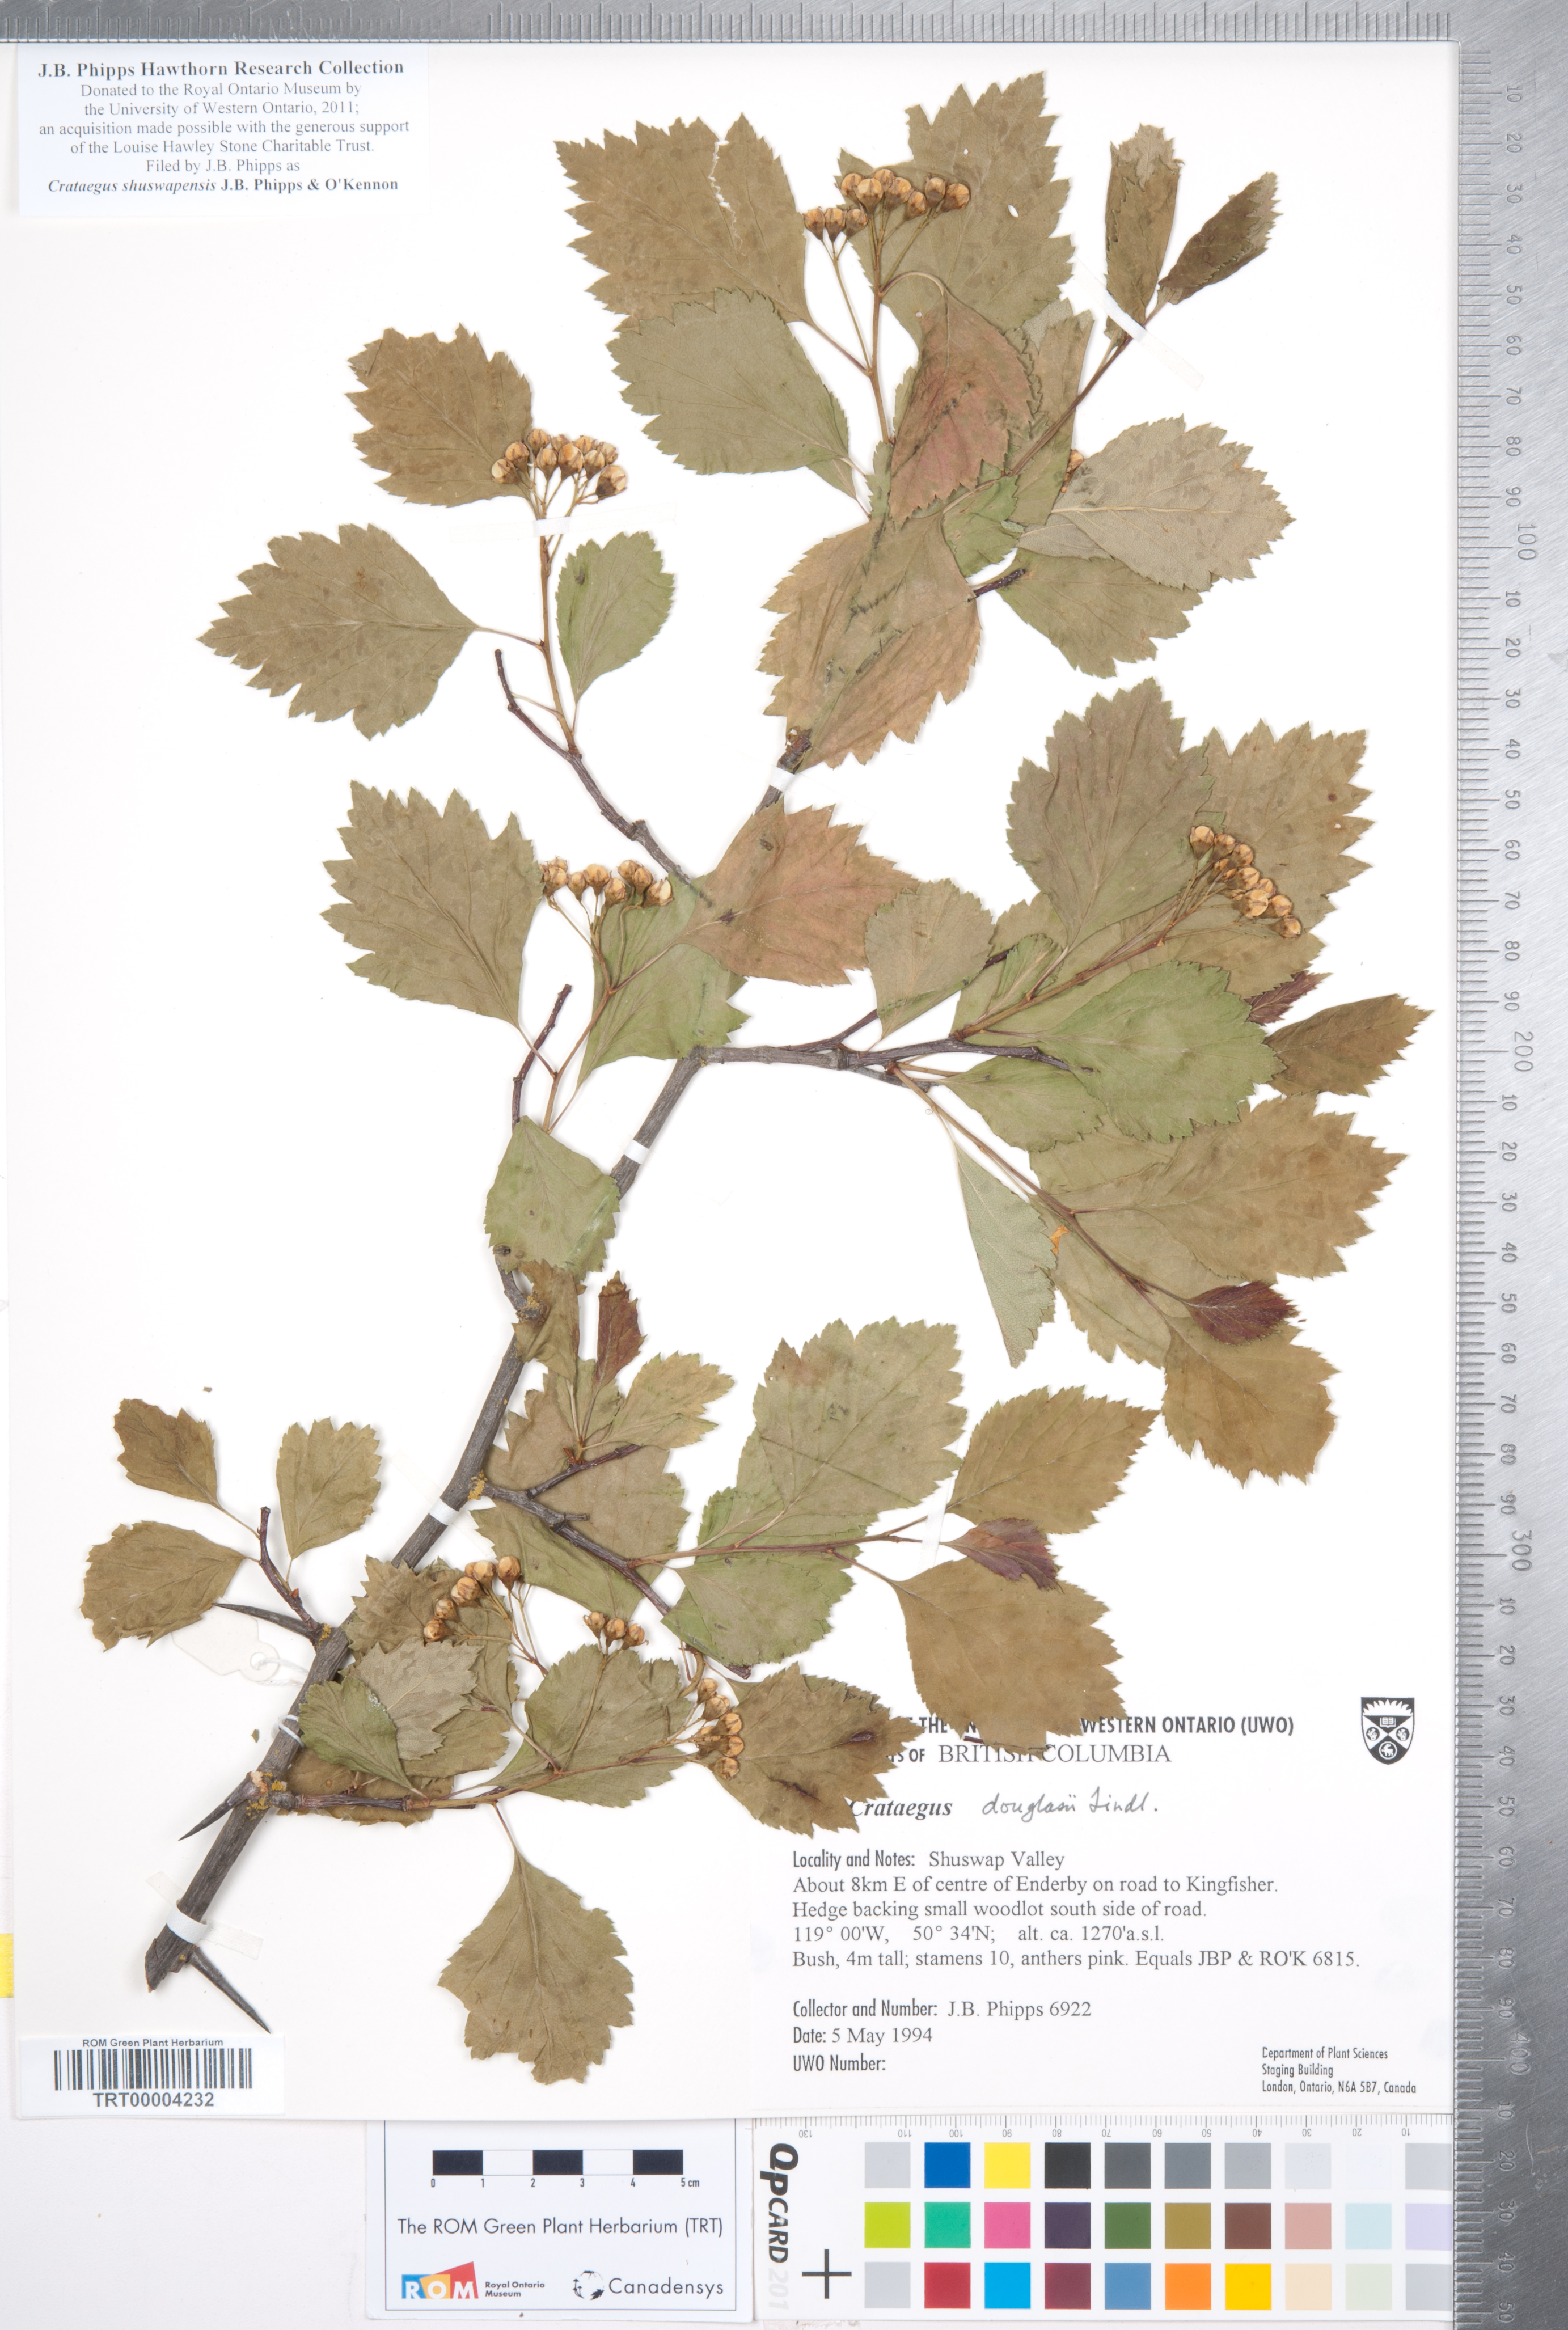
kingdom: Plantae
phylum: Tracheophyta
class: Magnoliopsida
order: Rosales
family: Rosaceae
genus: Crataegus
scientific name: Crataegus shuswapensis
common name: Shuswap hawthorn
